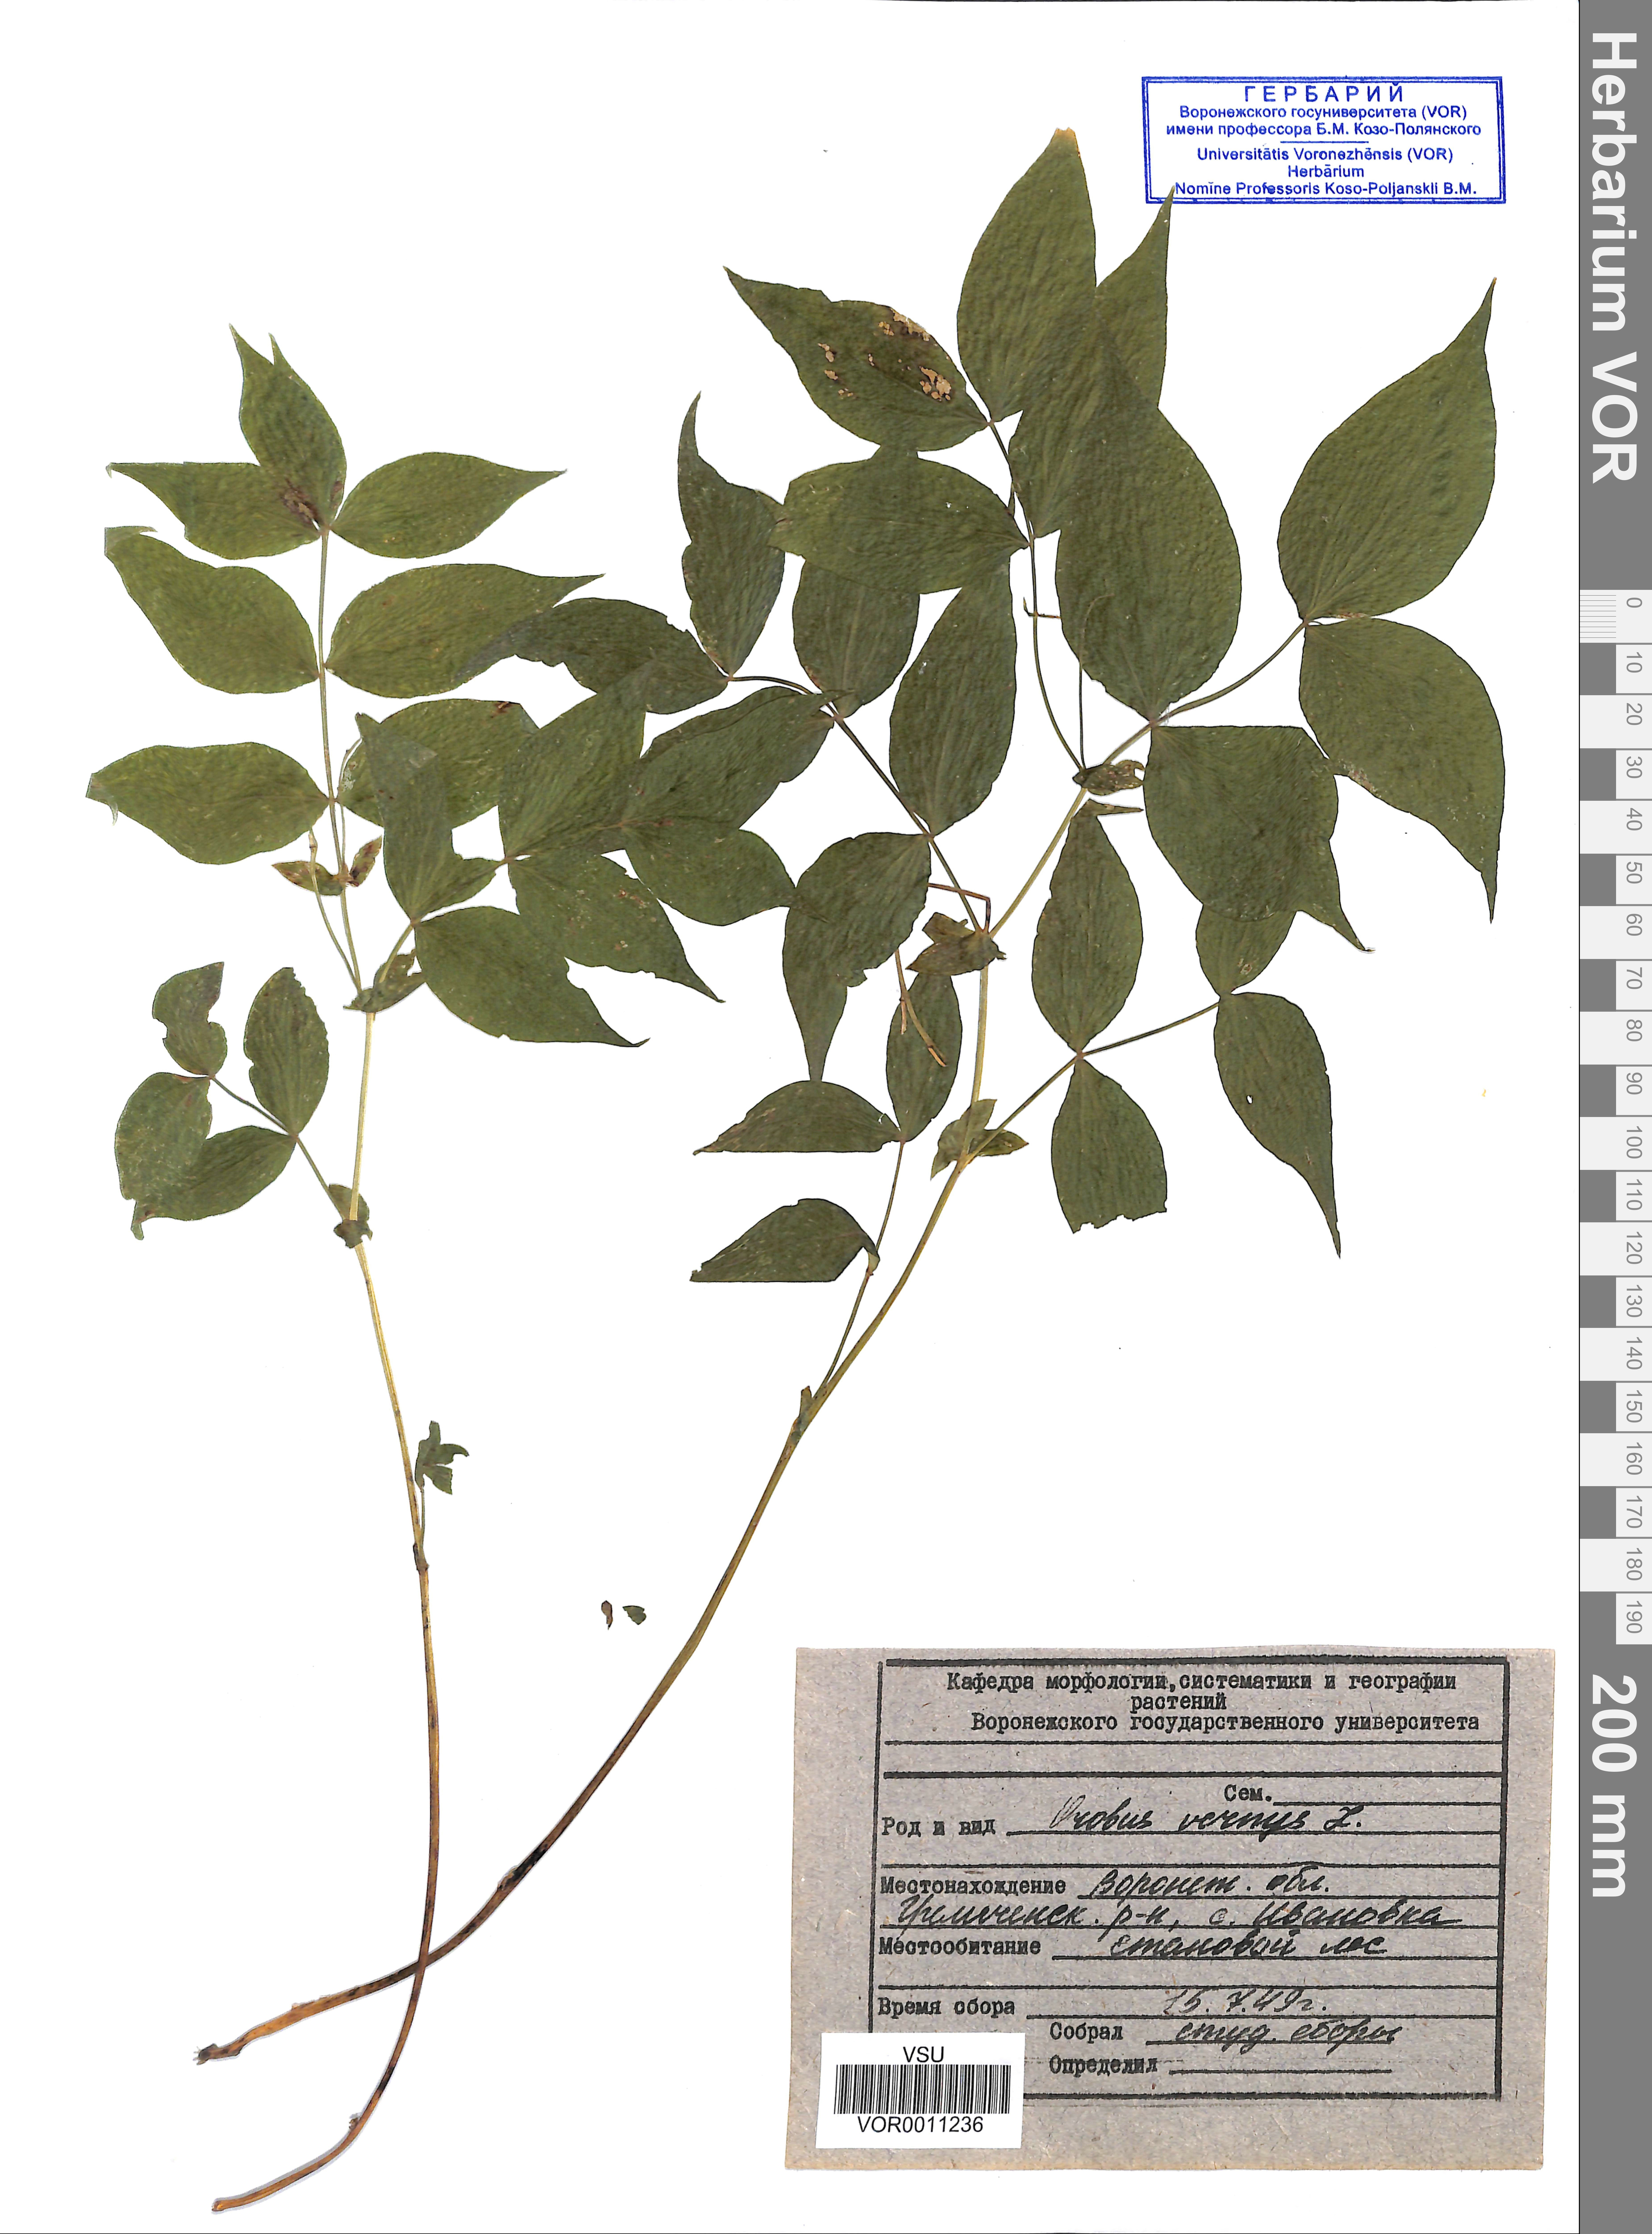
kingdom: Plantae
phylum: Tracheophyta
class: Magnoliopsida
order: Fabales
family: Fabaceae
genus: Lathyrus
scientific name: Lathyrus vernus
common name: Spring pea
